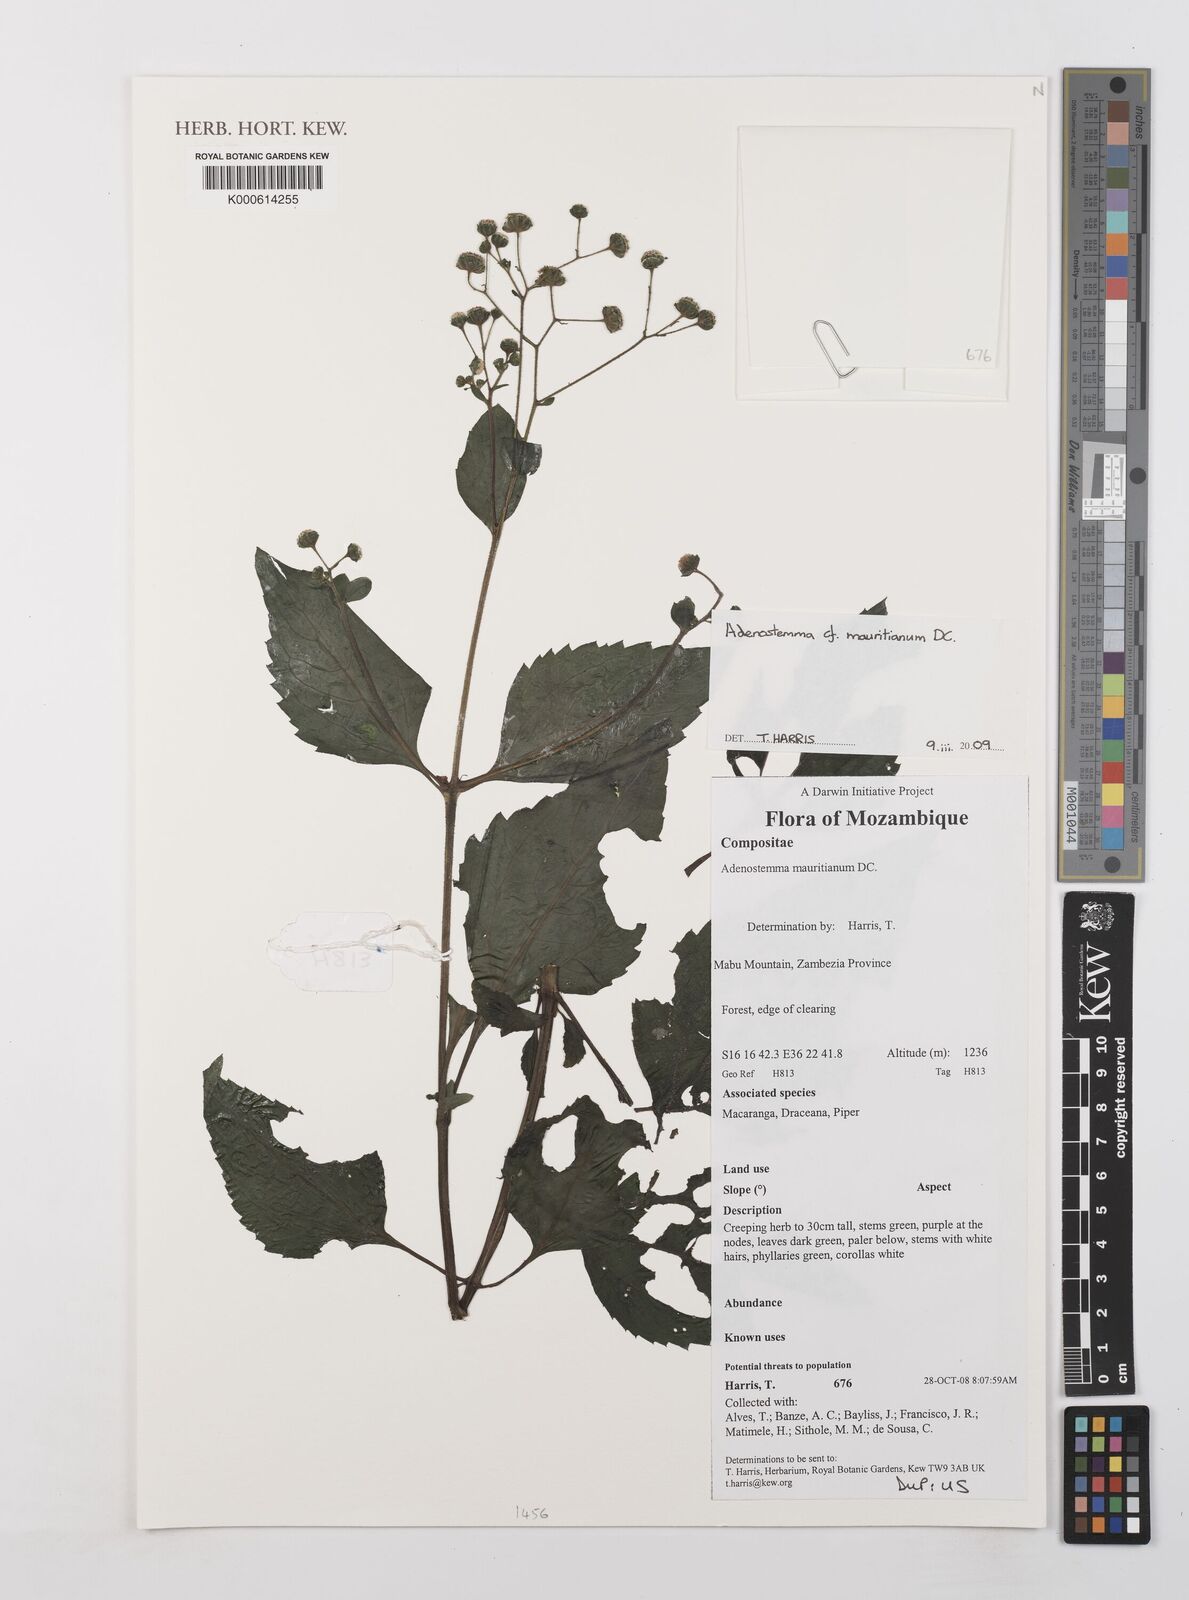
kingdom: Plantae
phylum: Tracheophyta
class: Magnoliopsida
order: Asterales
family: Asteraceae
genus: Adenostemma
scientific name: Adenostemma mauritianum
